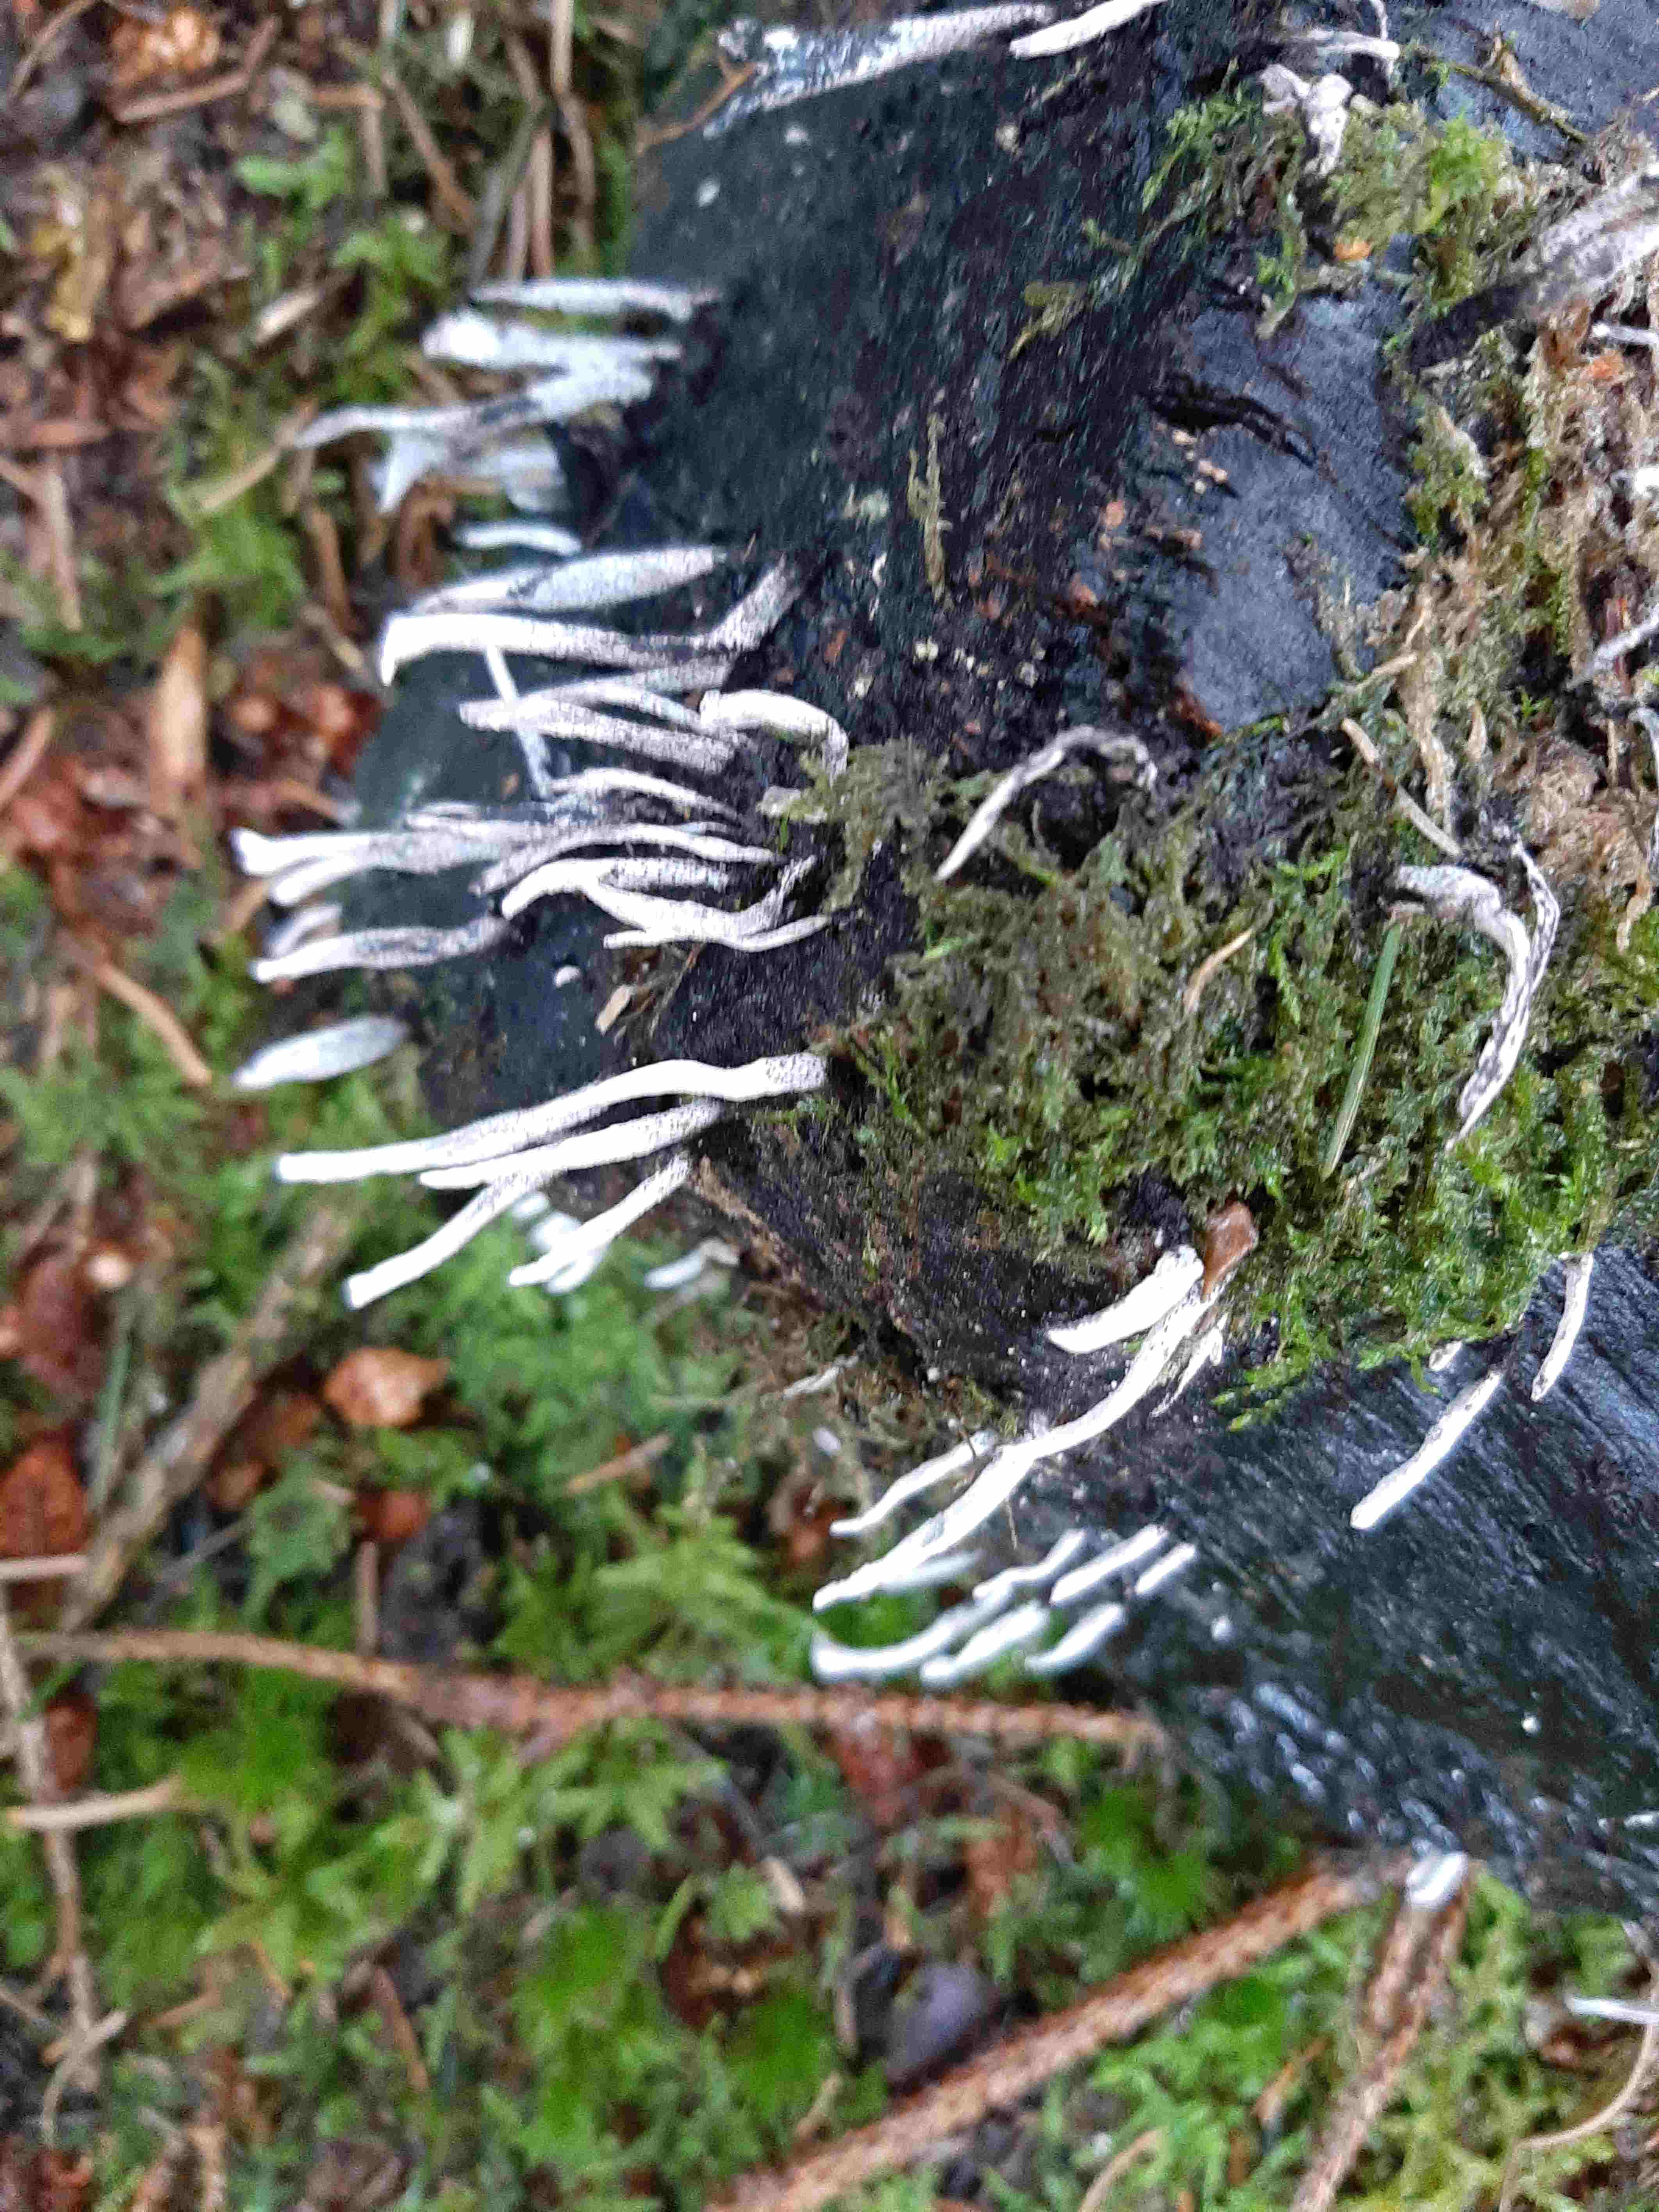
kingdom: Fungi
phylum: Ascomycota
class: Sordariomycetes
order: Xylariales
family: Xylariaceae
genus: Xylaria
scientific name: Xylaria hypoxylon
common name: grenet stødsvamp
